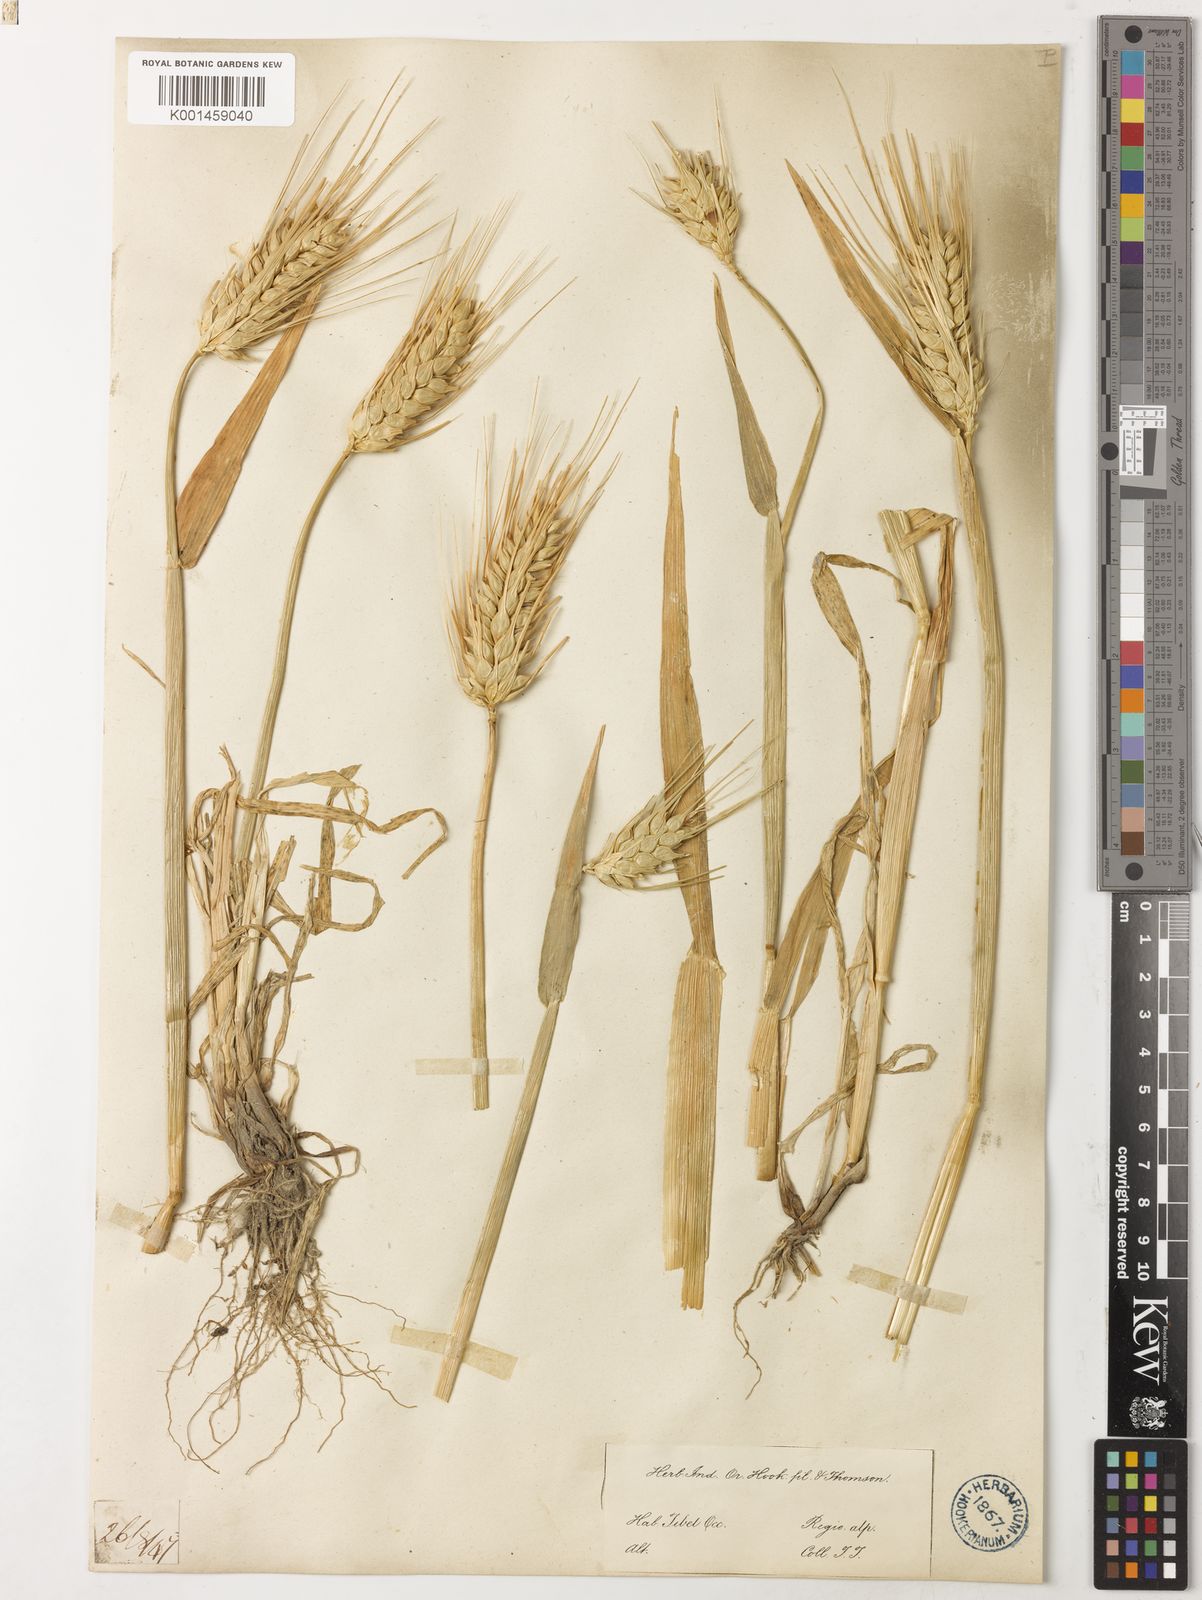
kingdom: Plantae
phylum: Tracheophyta
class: Liliopsida
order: Poales
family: Poaceae
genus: Hordeum
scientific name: Hordeum vulgare
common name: Common barley
